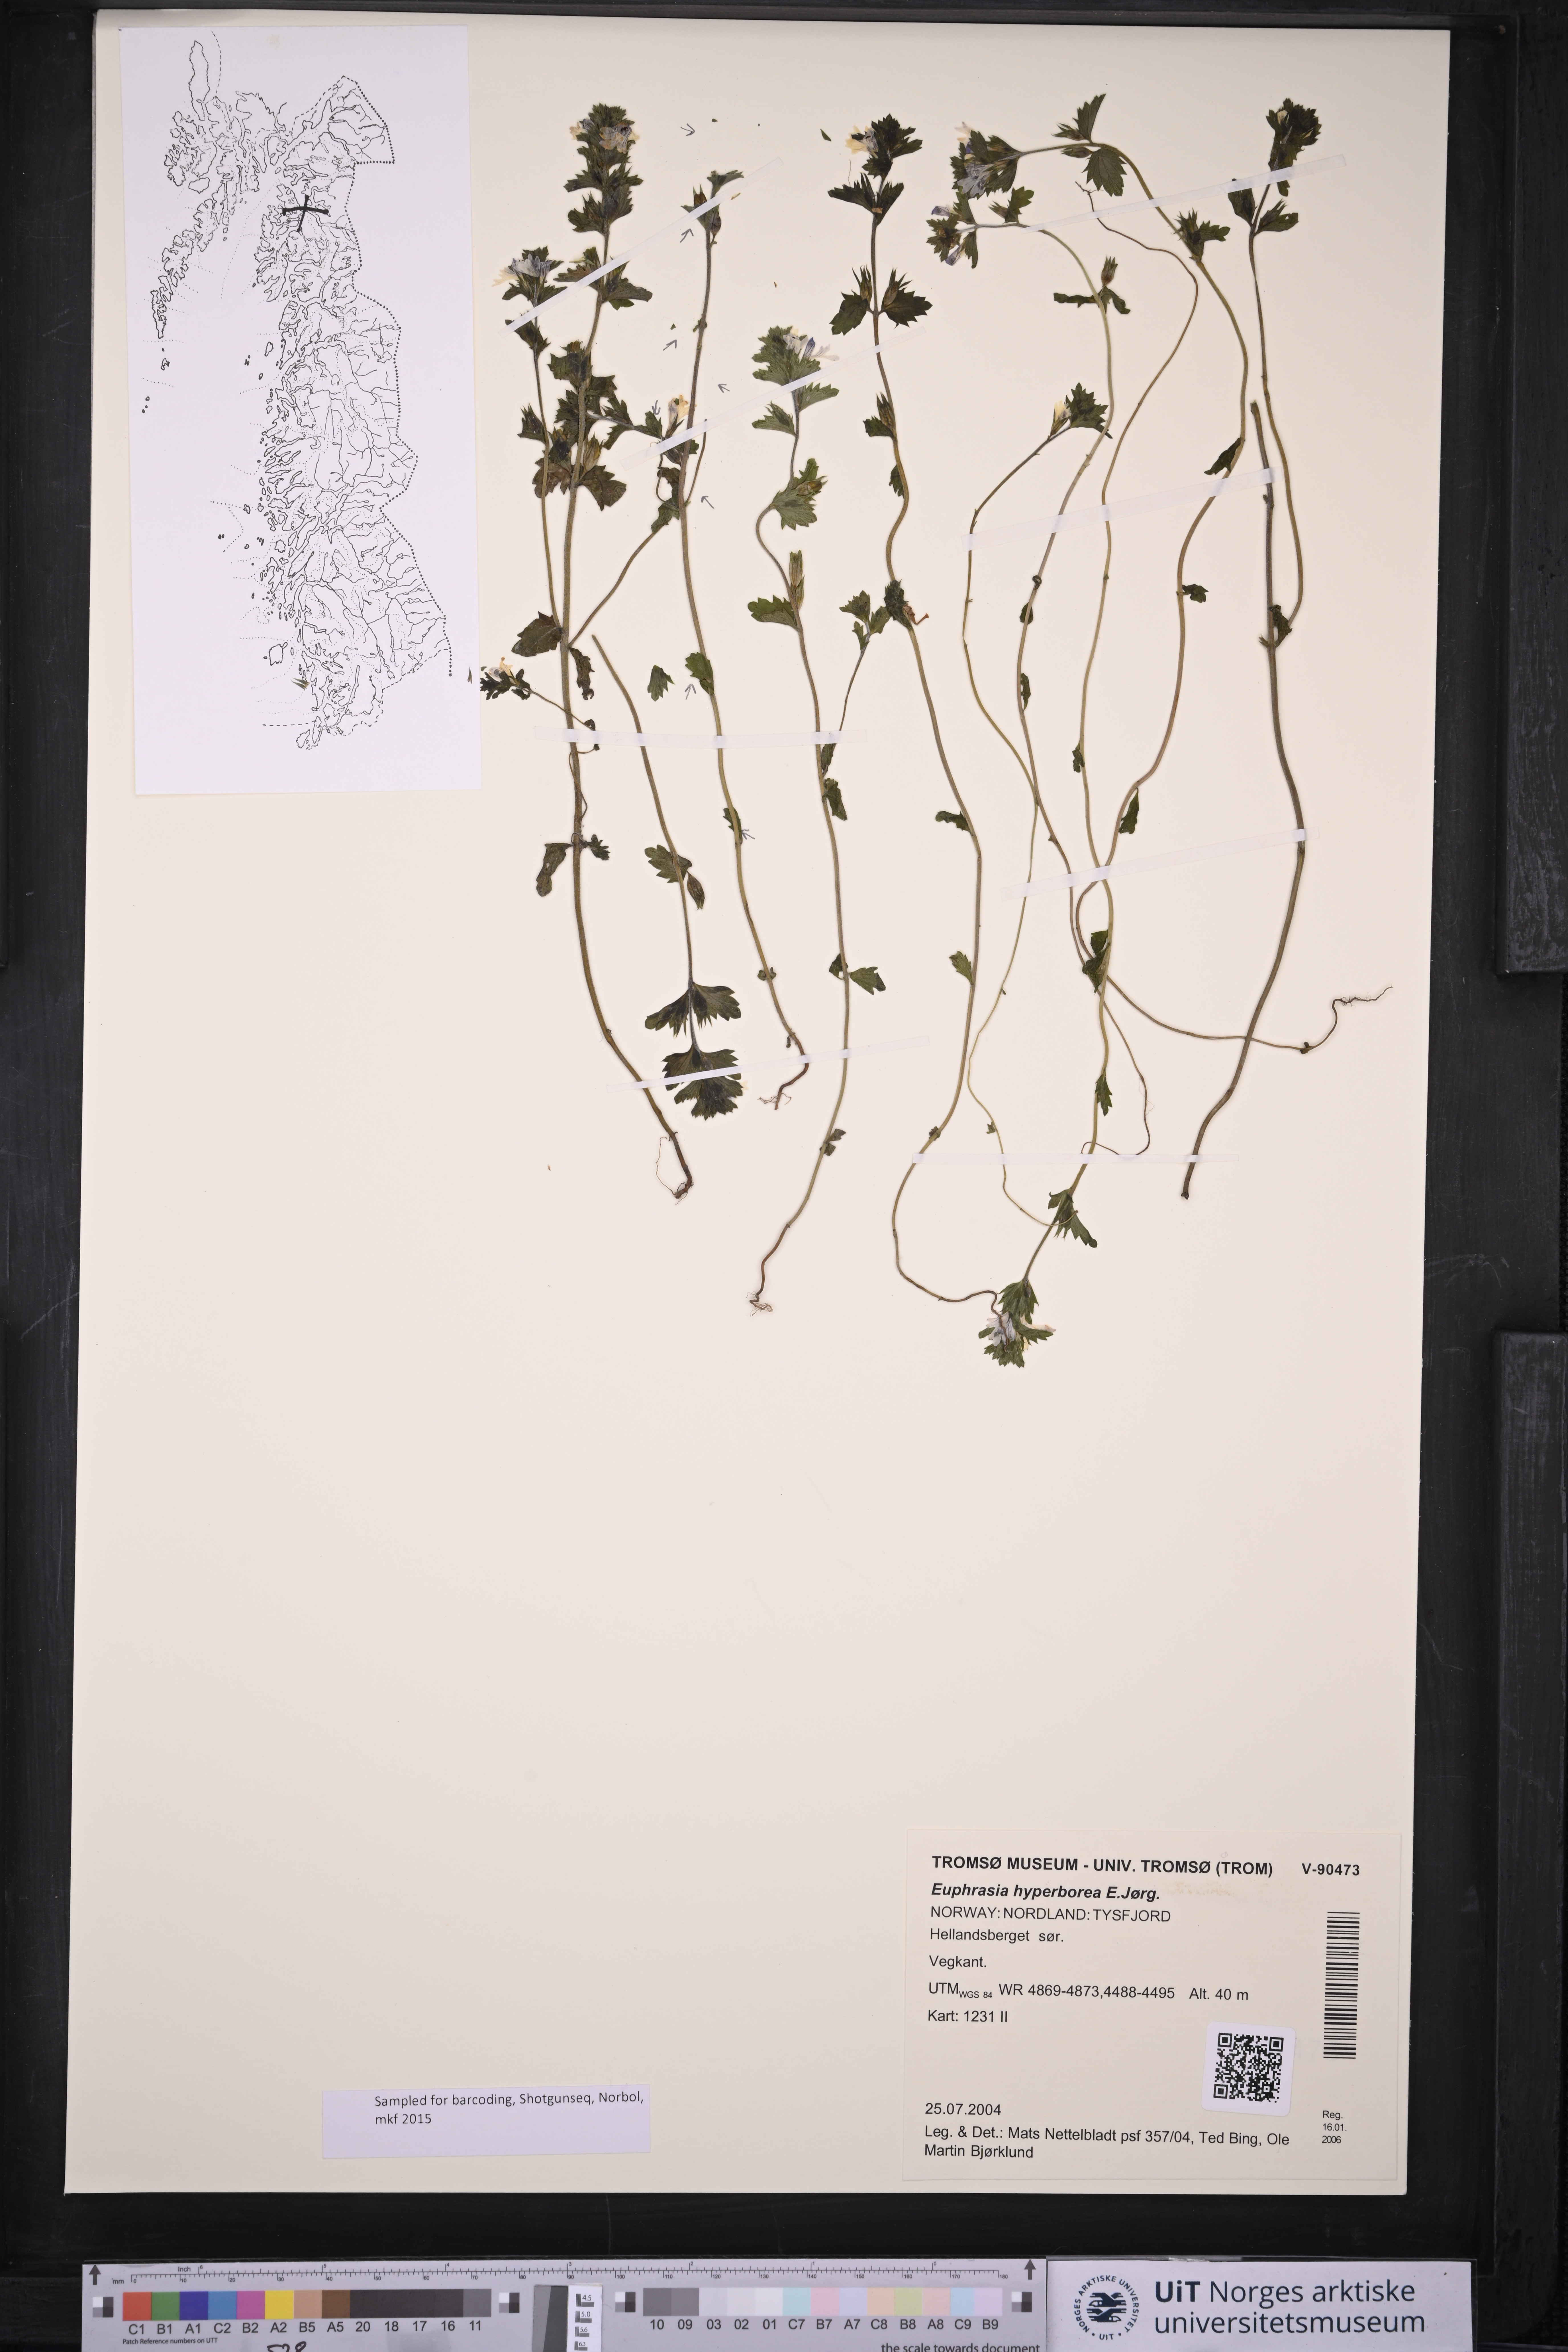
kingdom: Plantae
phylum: Tracheophyta
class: Magnoliopsida
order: Lamiales
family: Orobanchaceae
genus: Euphrasia
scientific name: Euphrasia hyperborea
